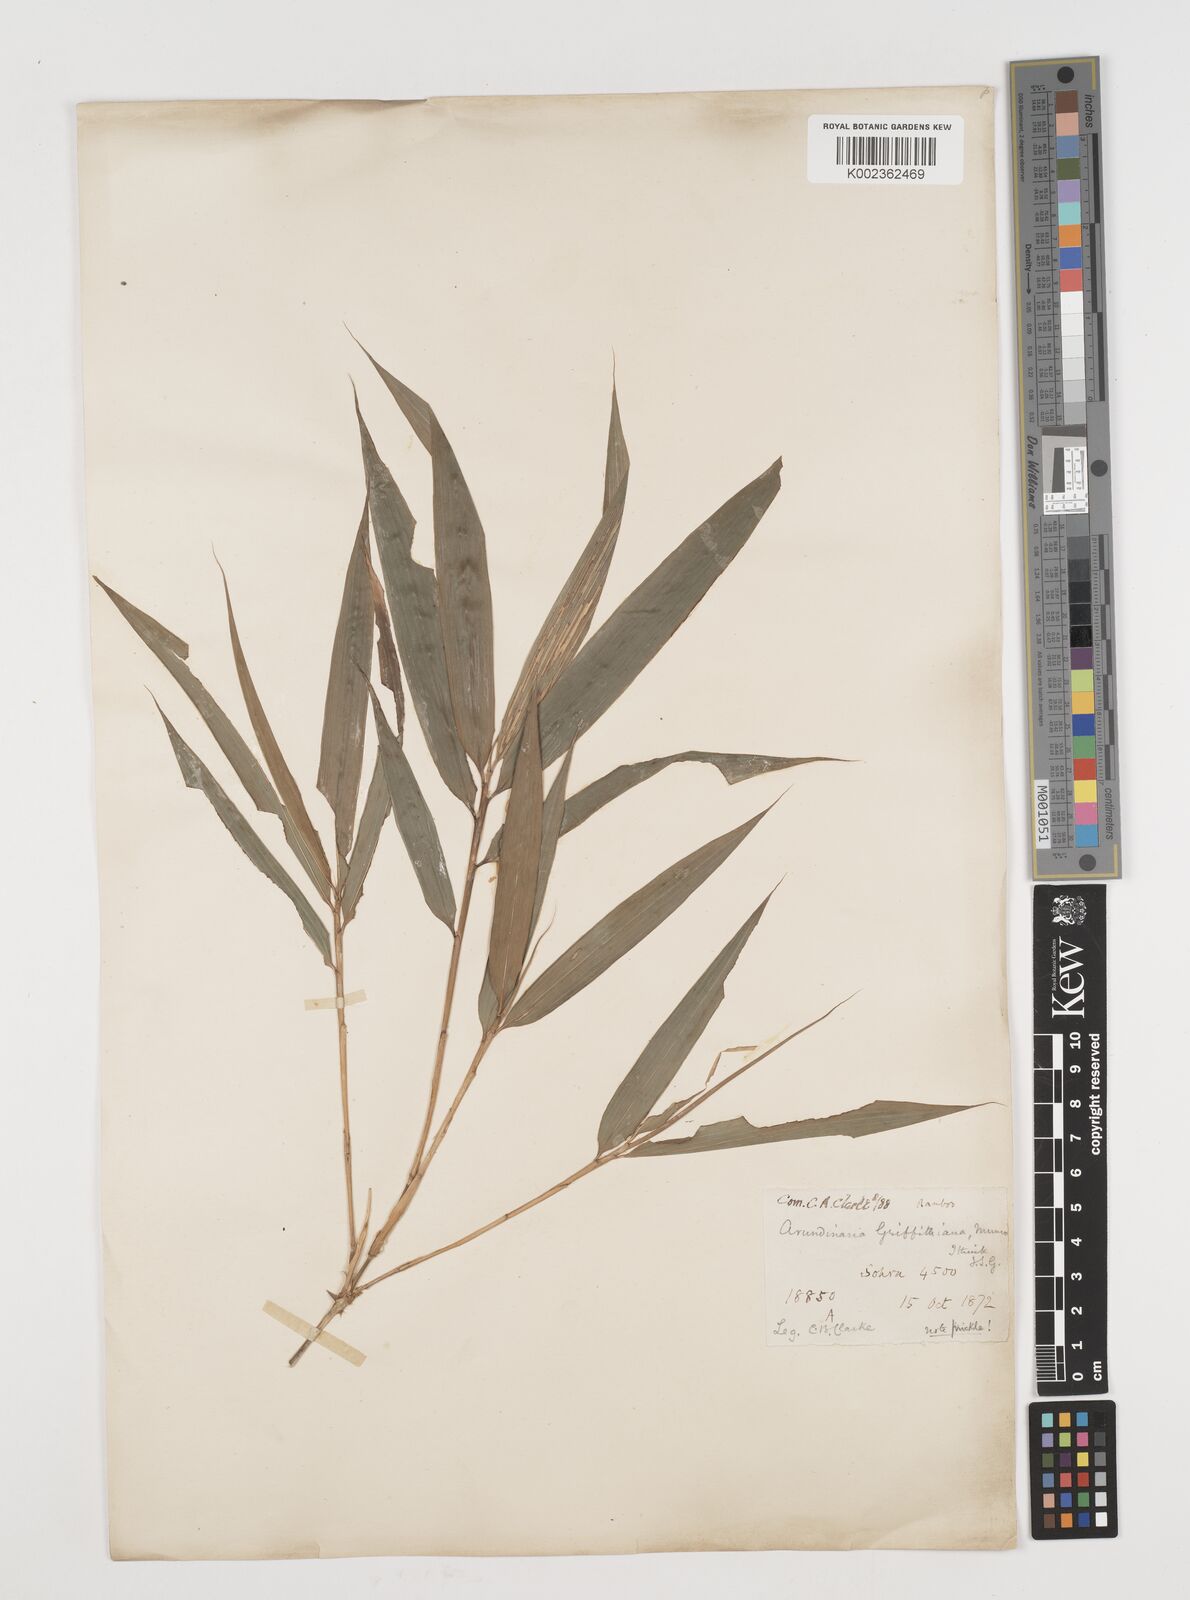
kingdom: Plantae
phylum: Tracheophyta
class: Liliopsida
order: Poales
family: Poaceae
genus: Chimonocalamus
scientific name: Chimonocalamus griffithianus
